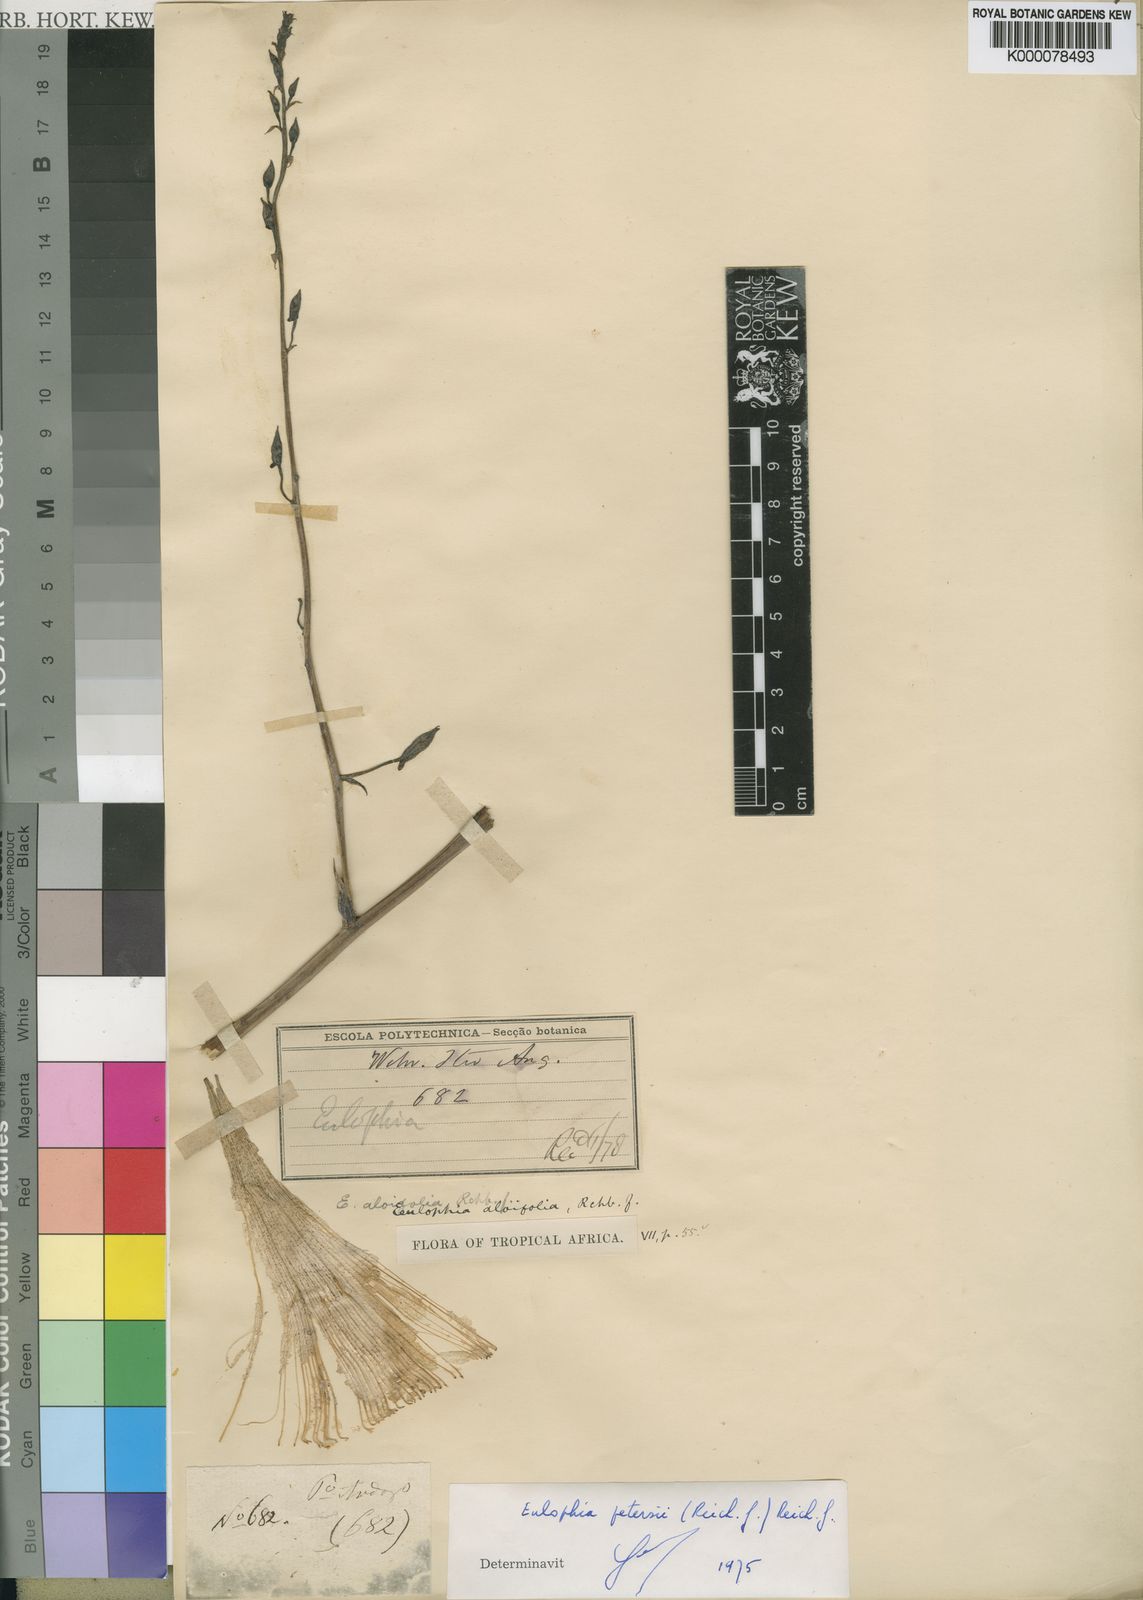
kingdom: Plantae
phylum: Tracheophyta
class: Liliopsida
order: Asparagales
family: Orchidaceae
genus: Eulophia
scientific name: Eulophia aloifolia
